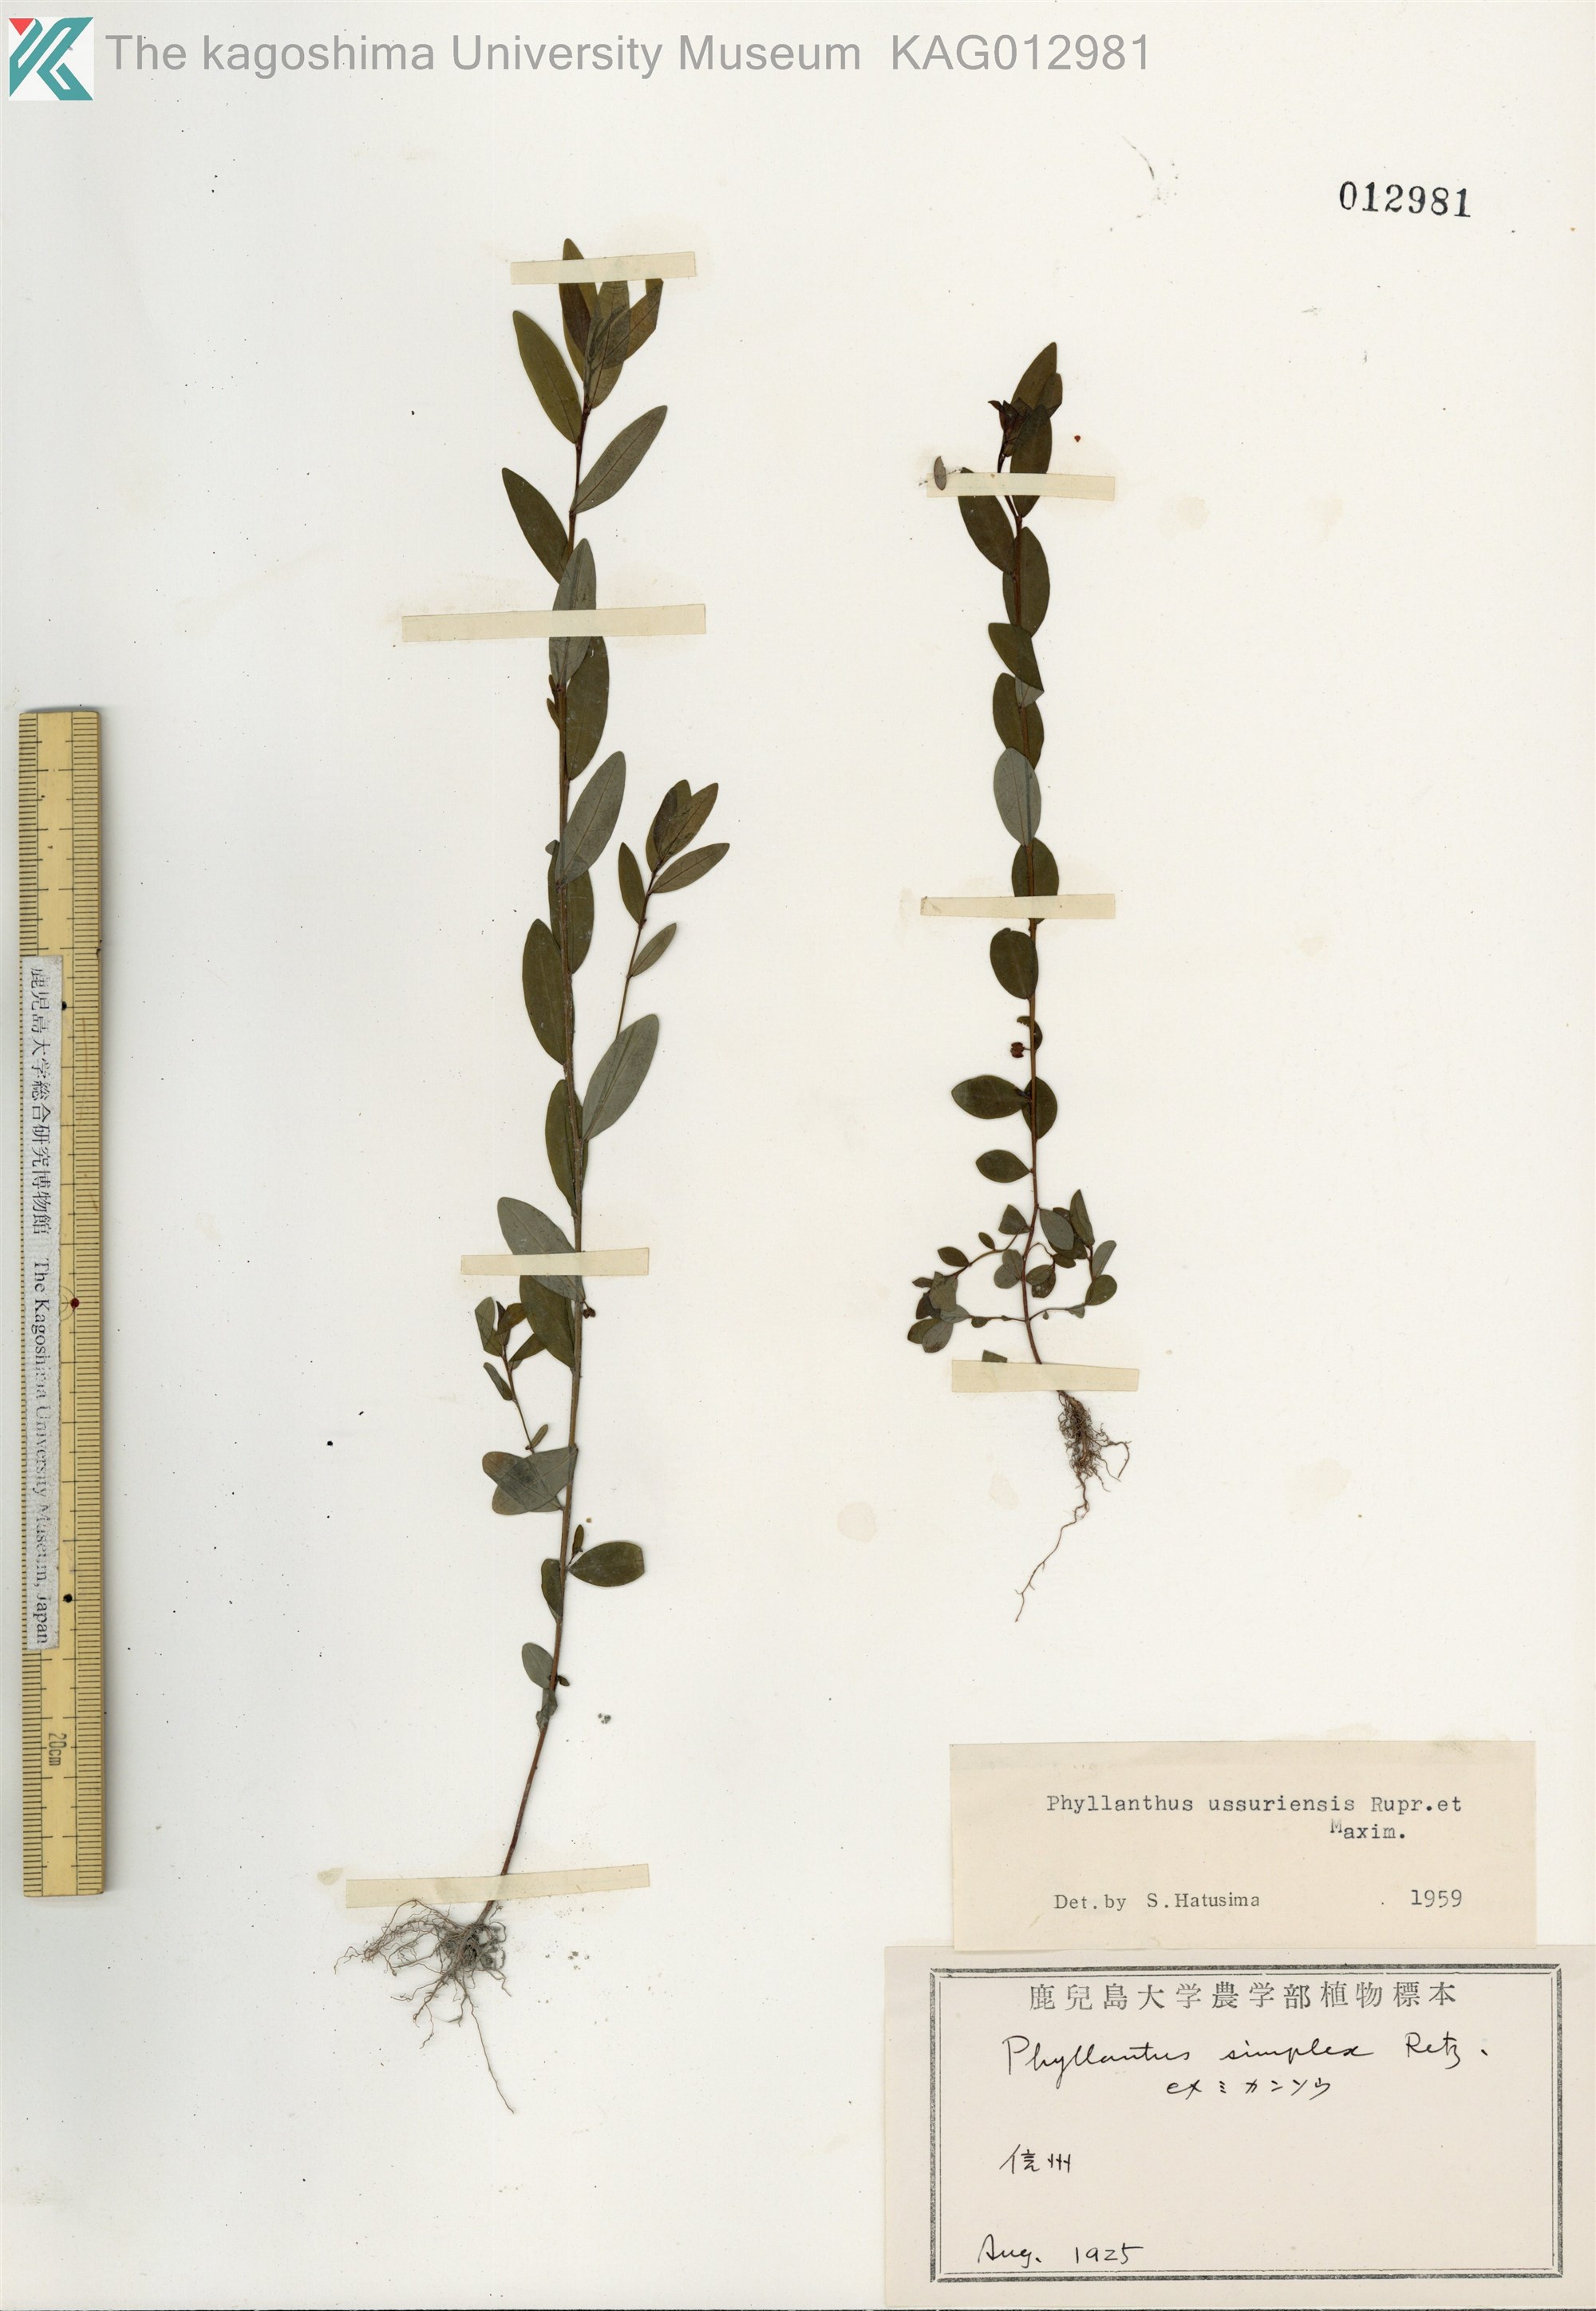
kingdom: Plantae
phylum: Tracheophyta
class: Magnoliopsida
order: Malpighiales
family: Phyllanthaceae
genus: Phyllanthus
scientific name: Phyllanthus ussuriensis
